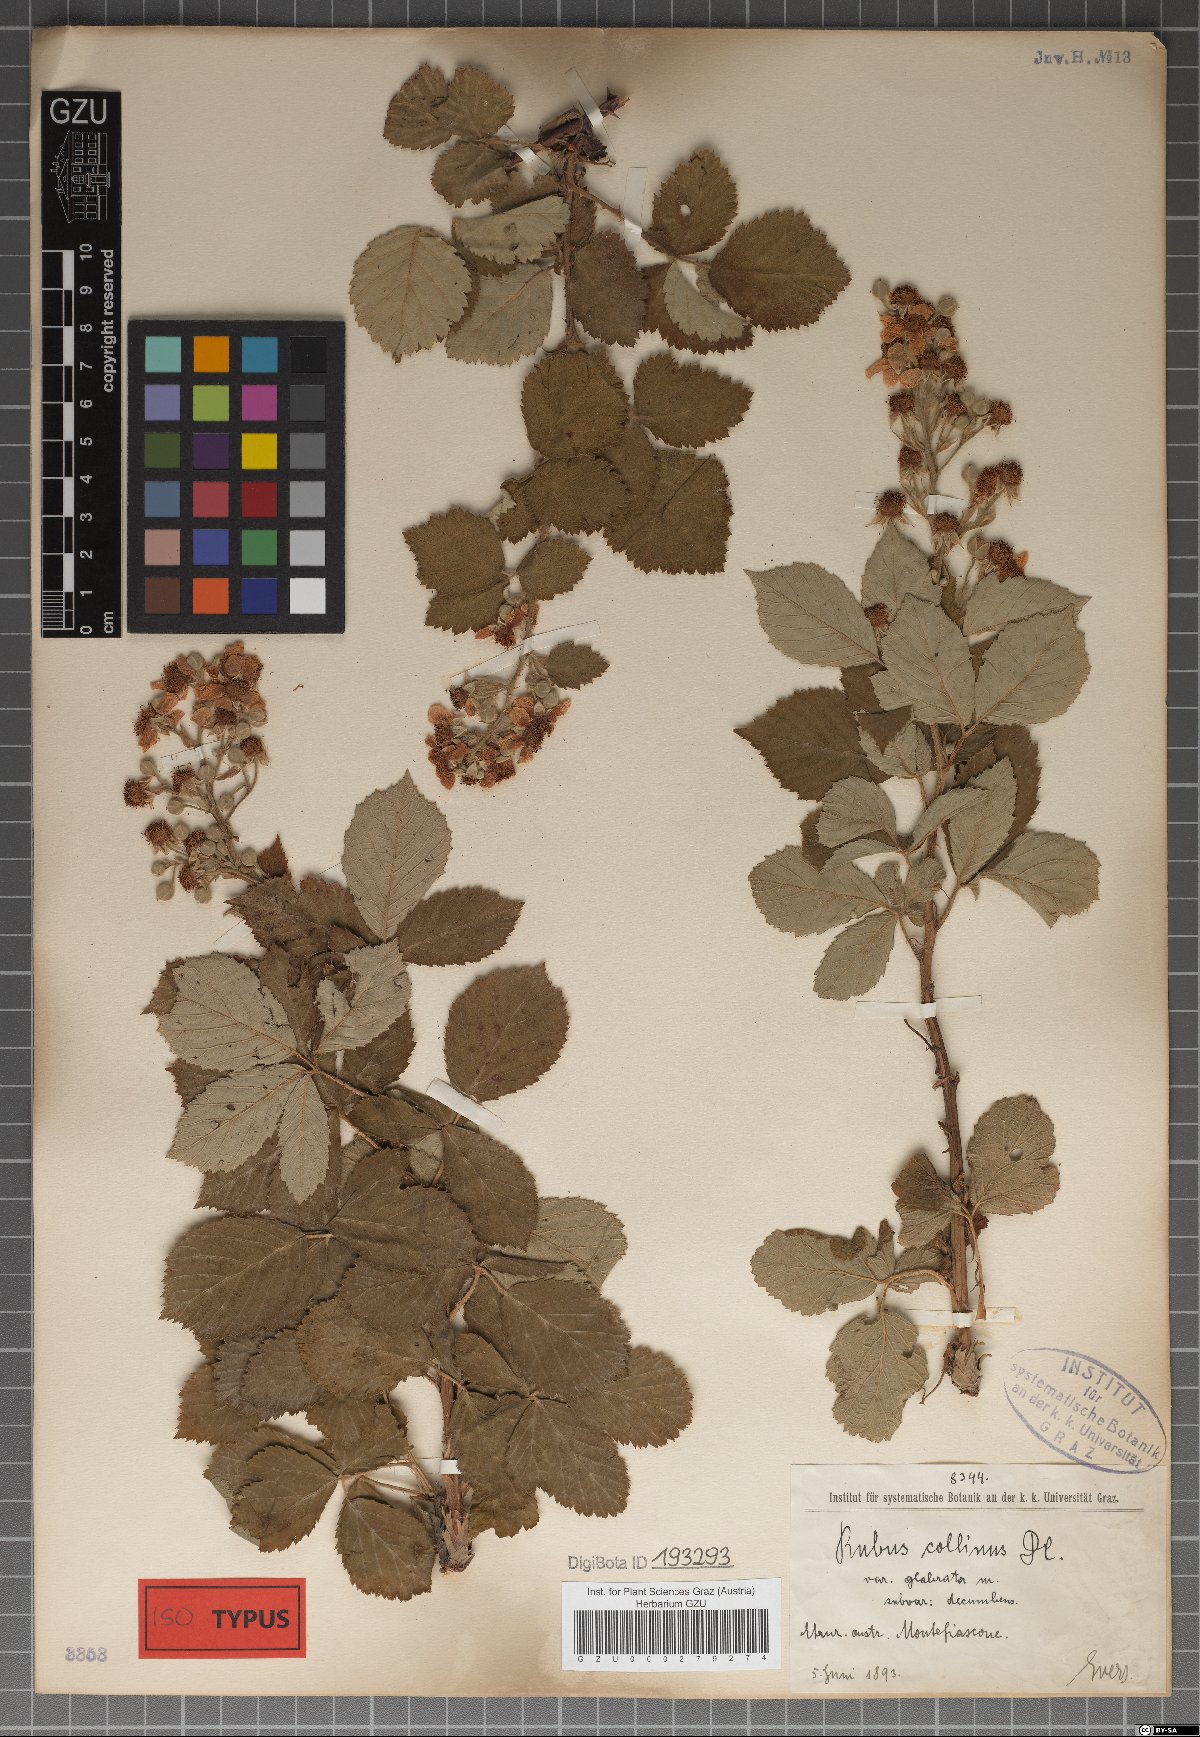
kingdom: Plantae
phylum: Tracheophyta
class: Magnoliopsida
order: Rosales
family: Rosaceae
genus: Rubus
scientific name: Rubus collinus
